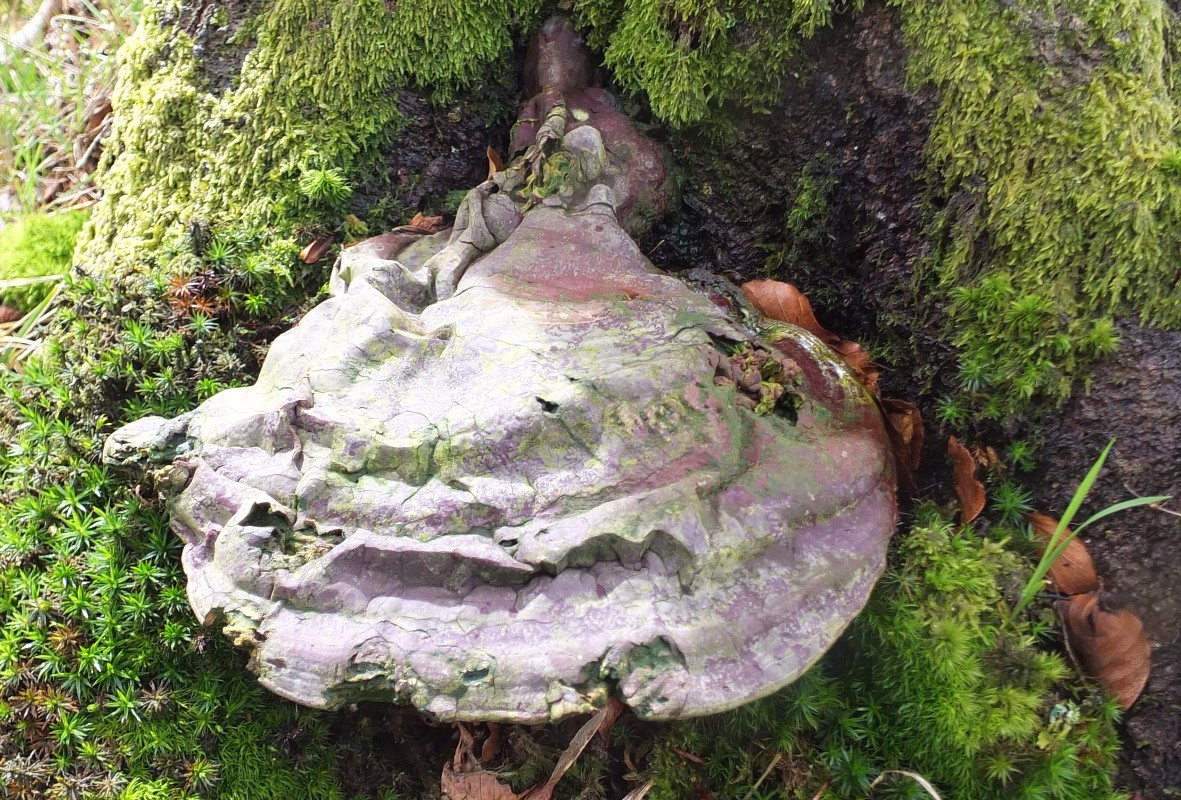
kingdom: Fungi
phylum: Basidiomycota
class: Agaricomycetes
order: Polyporales
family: Polyporaceae
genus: Ganoderma
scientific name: Ganoderma pfeifferi
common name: kobberrød lakporesvamp
